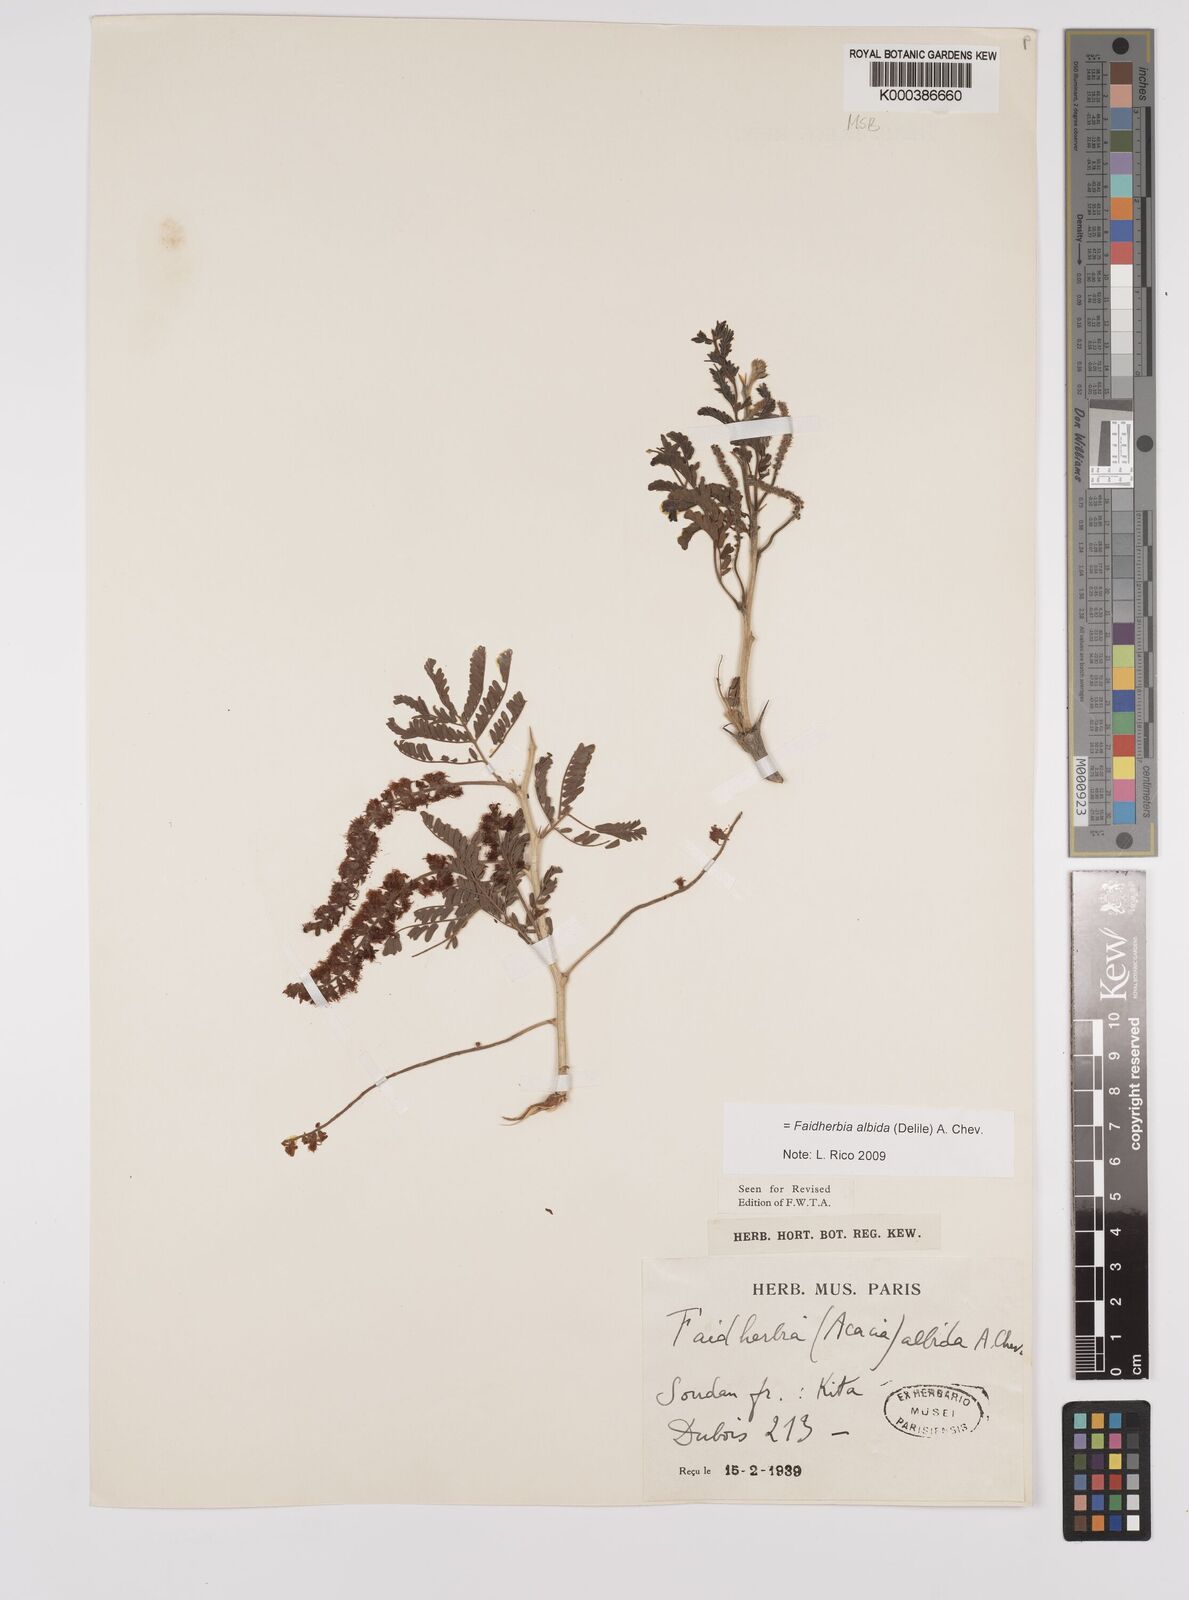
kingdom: Plantae
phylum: Tracheophyta
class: Magnoliopsida
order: Fabales
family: Fabaceae
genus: Faidherbia
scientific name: Faidherbia albida
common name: Anatree
